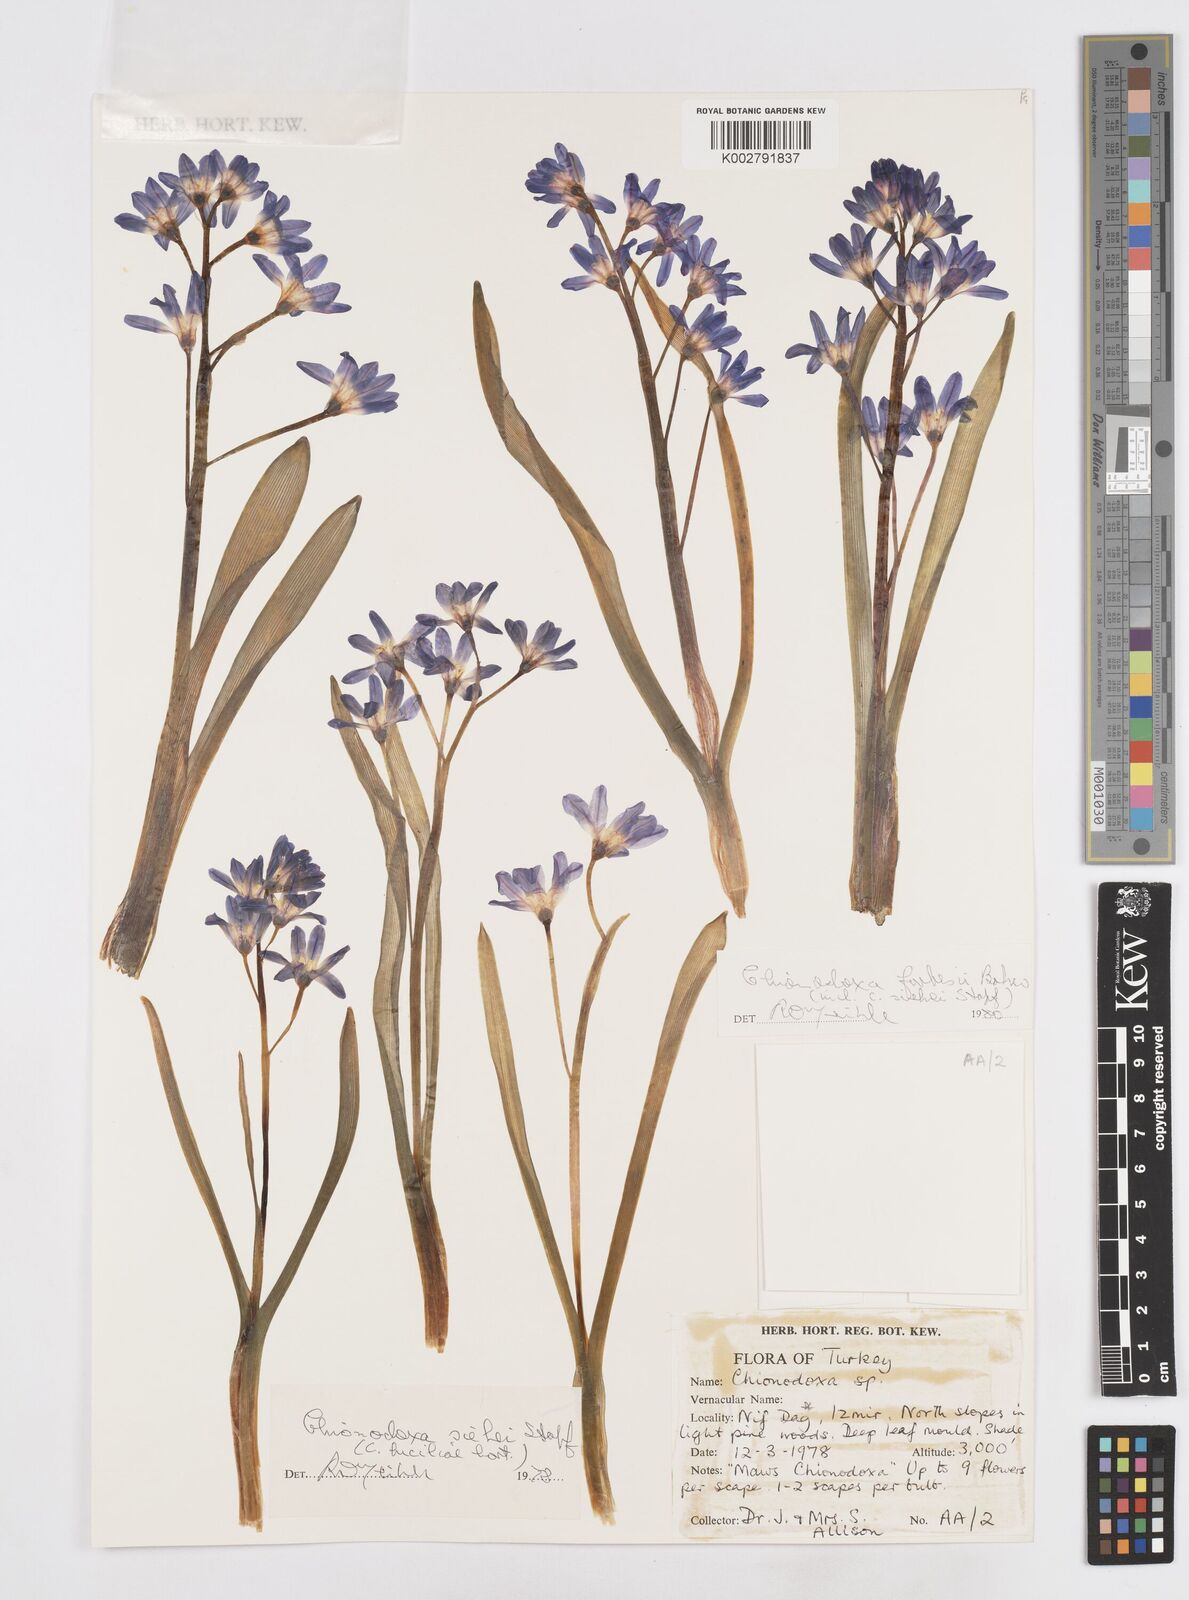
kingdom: Plantae
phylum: Tracheophyta
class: Liliopsida
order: Asparagales
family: Asparagaceae
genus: Scilla
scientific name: Scilla forbesii
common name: Glory-of-the-snow
